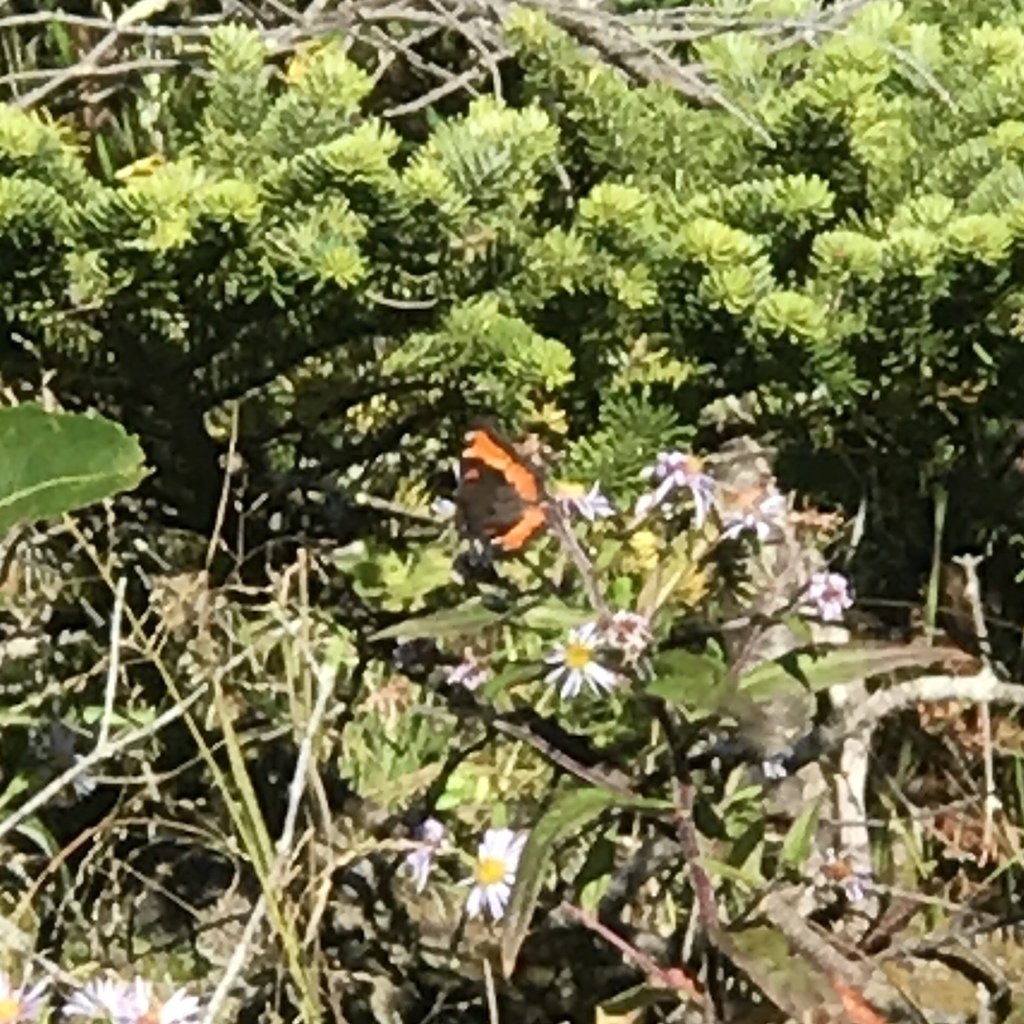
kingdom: Animalia
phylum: Arthropoda
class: Insecta
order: Lepidoptera
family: Nymphalidae
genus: Aglais
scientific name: Aglais milberti
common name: Milbert's Tortoiseshell
